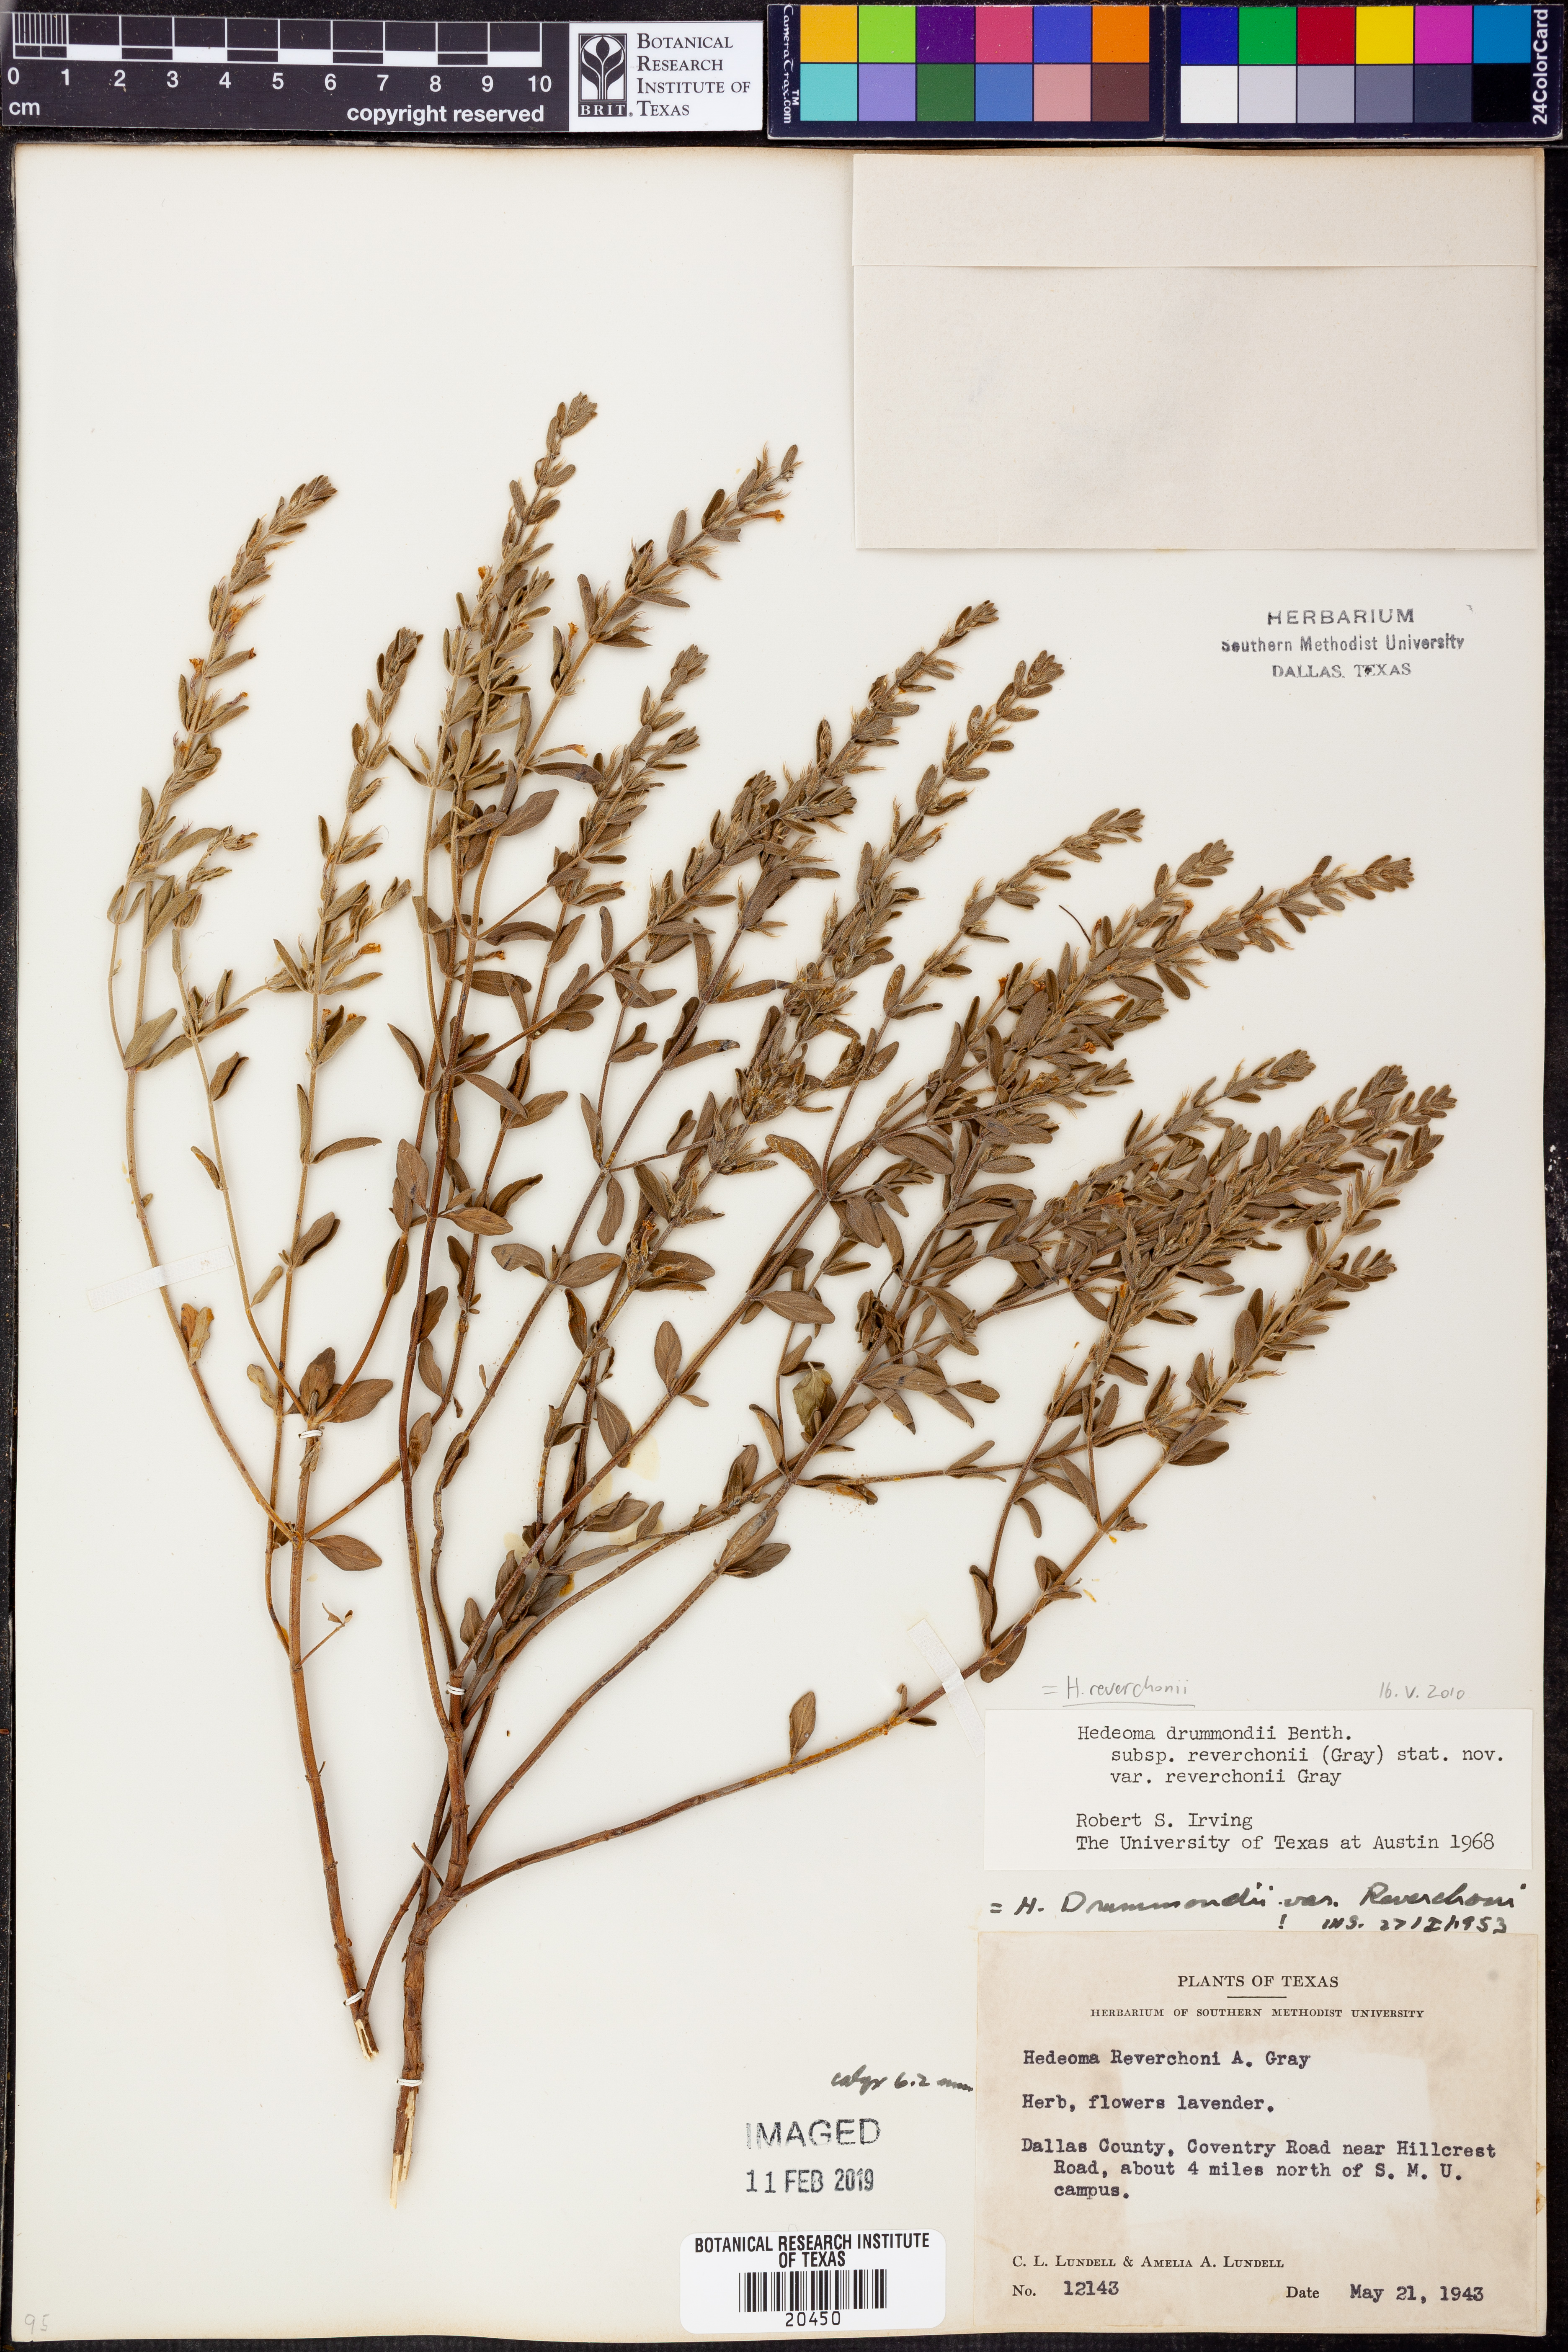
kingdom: Plantae
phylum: Tracheophyta
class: Magnoliopsida
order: Lamiales
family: Lamiaceae
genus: Hedeoma
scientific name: Hedeoma reverchonii
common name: Reverchon's false penny-royal
